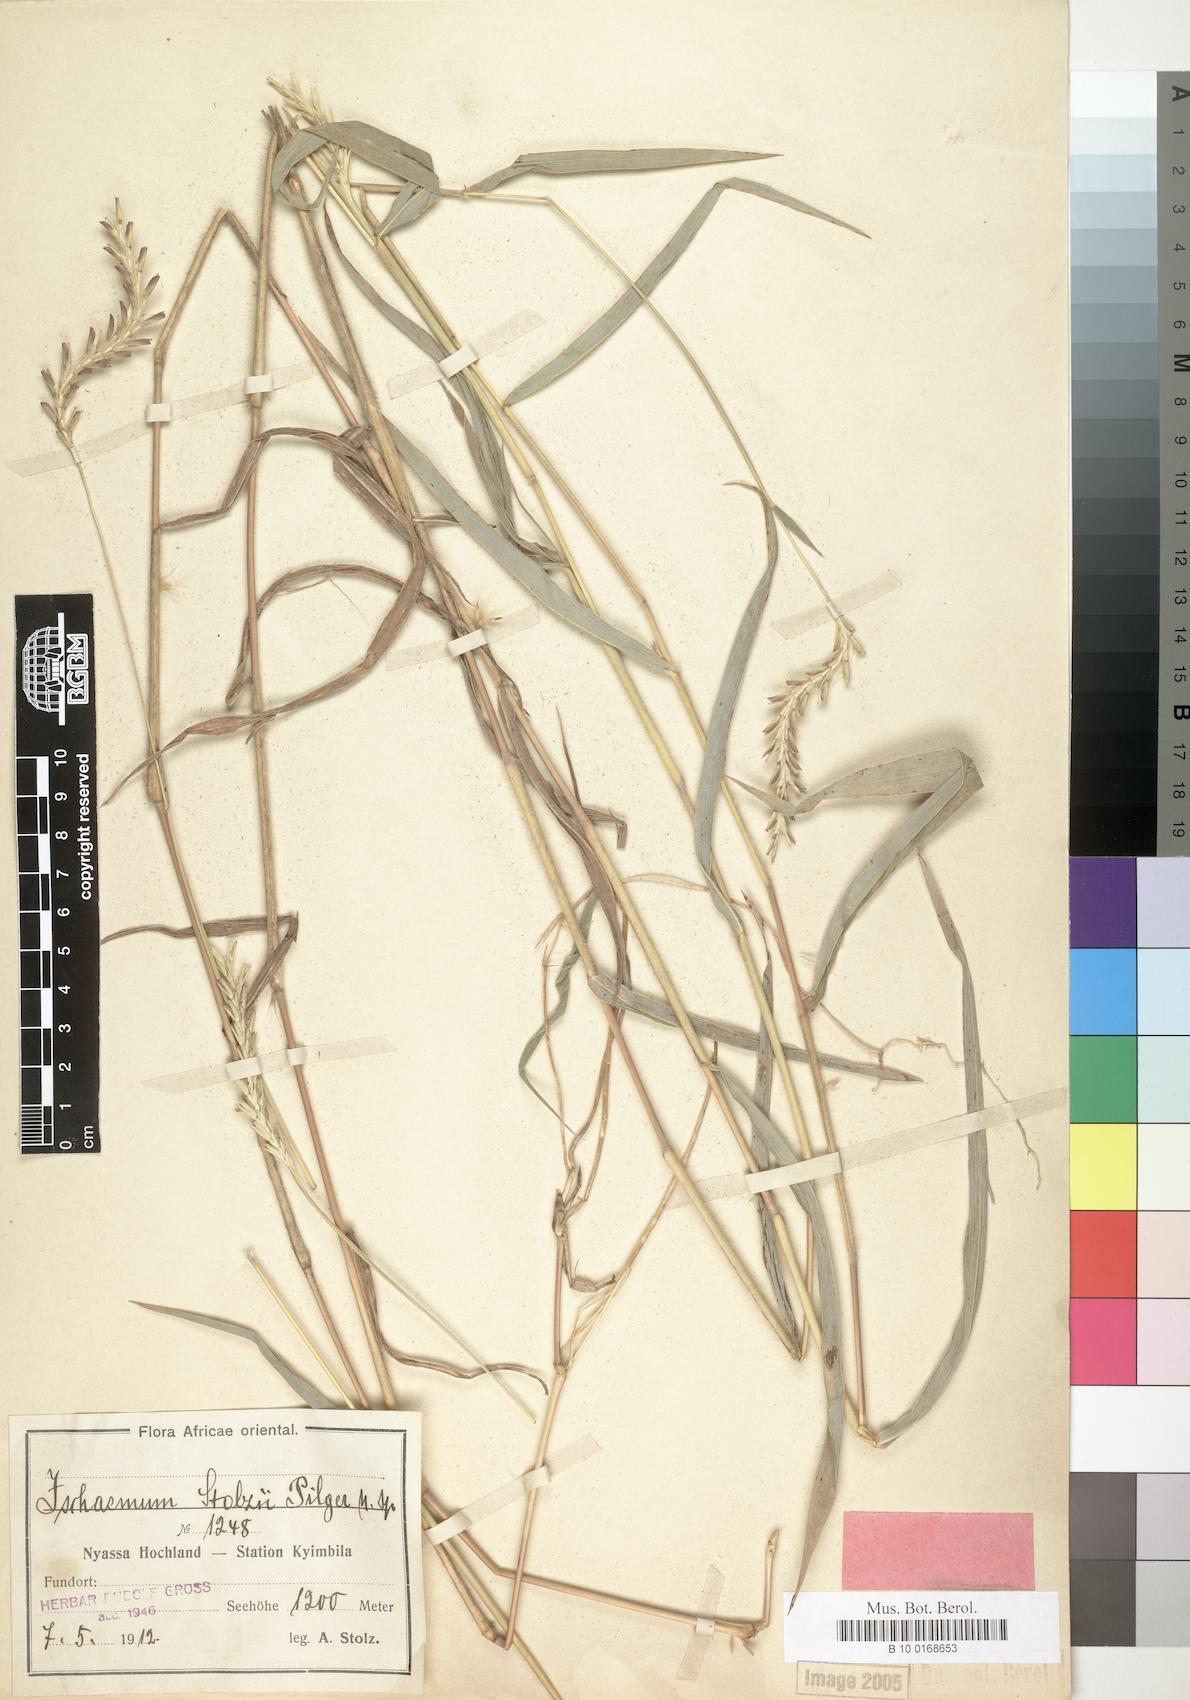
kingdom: Plantae
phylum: Tracheophyta
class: Liliopsida
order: Poales
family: Poaceae
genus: Andropterum
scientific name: Andropterum stolzii
